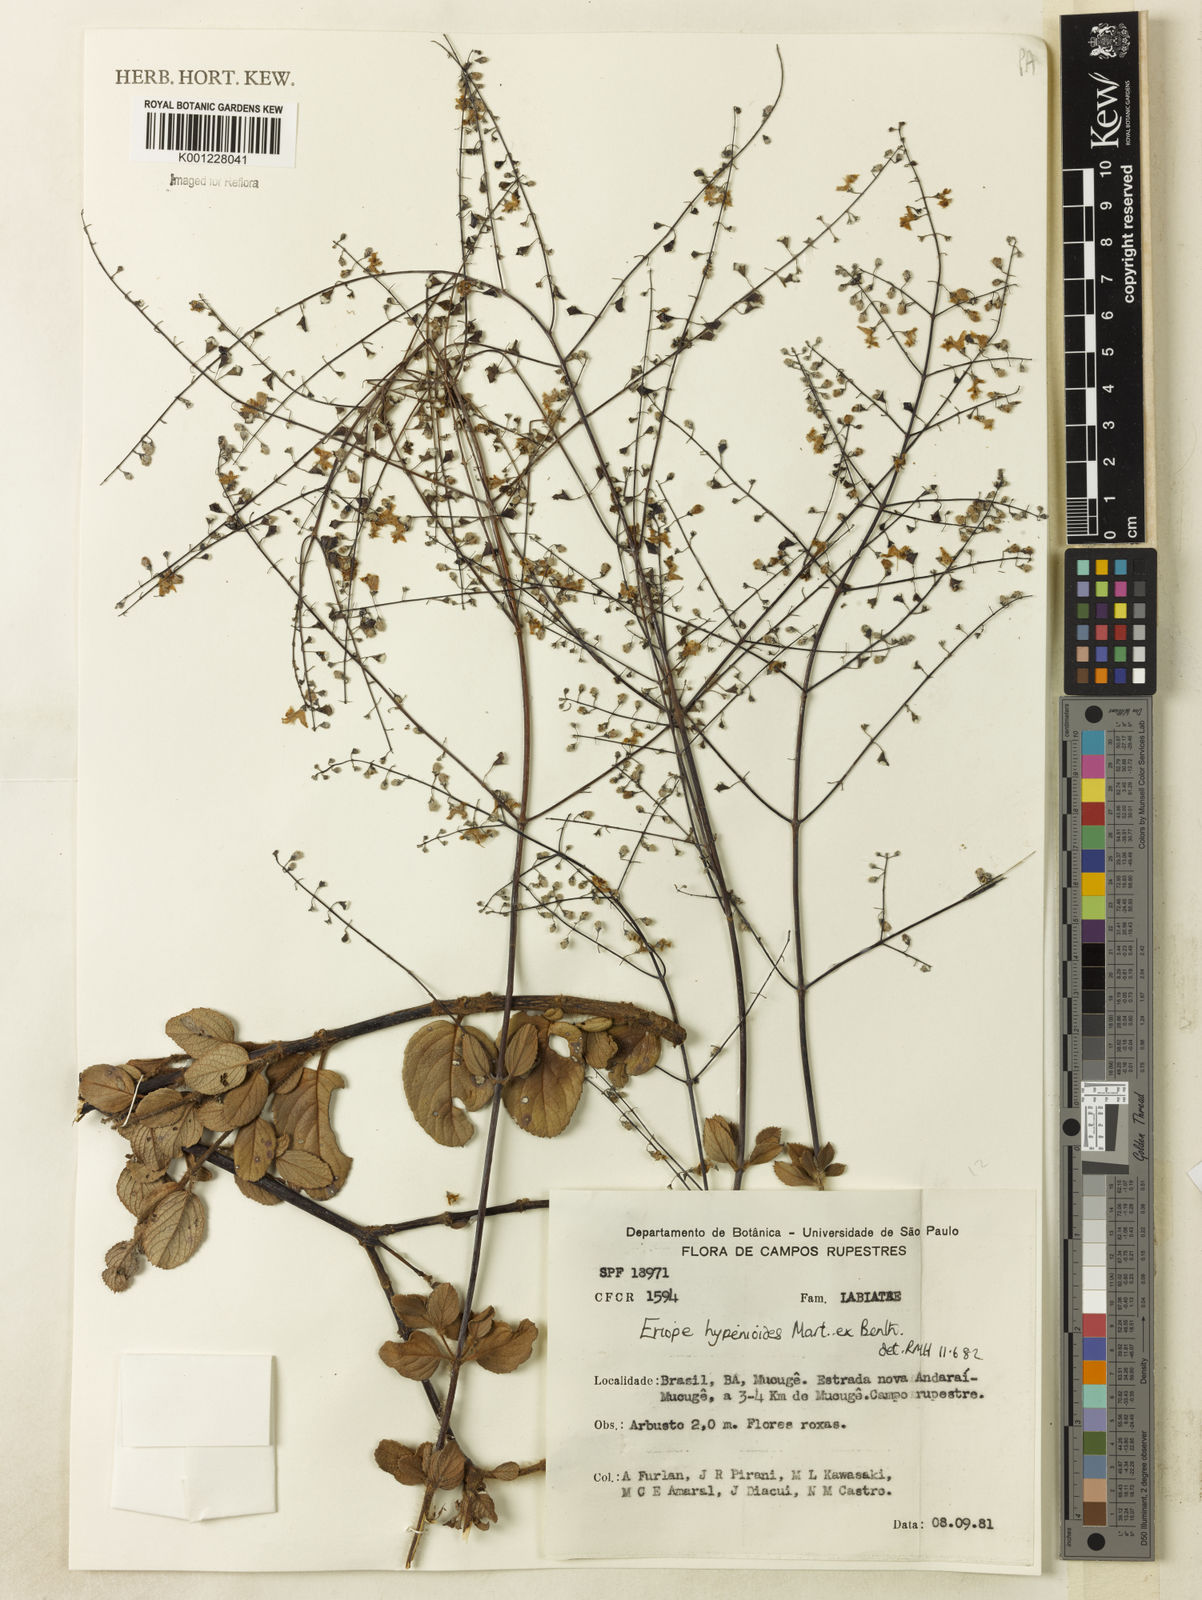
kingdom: Plantae
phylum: Tracheophyta
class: Magnoliopsida
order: Lamiales
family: Lamiaceae
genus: Eriope
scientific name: Eriope hypenioides
